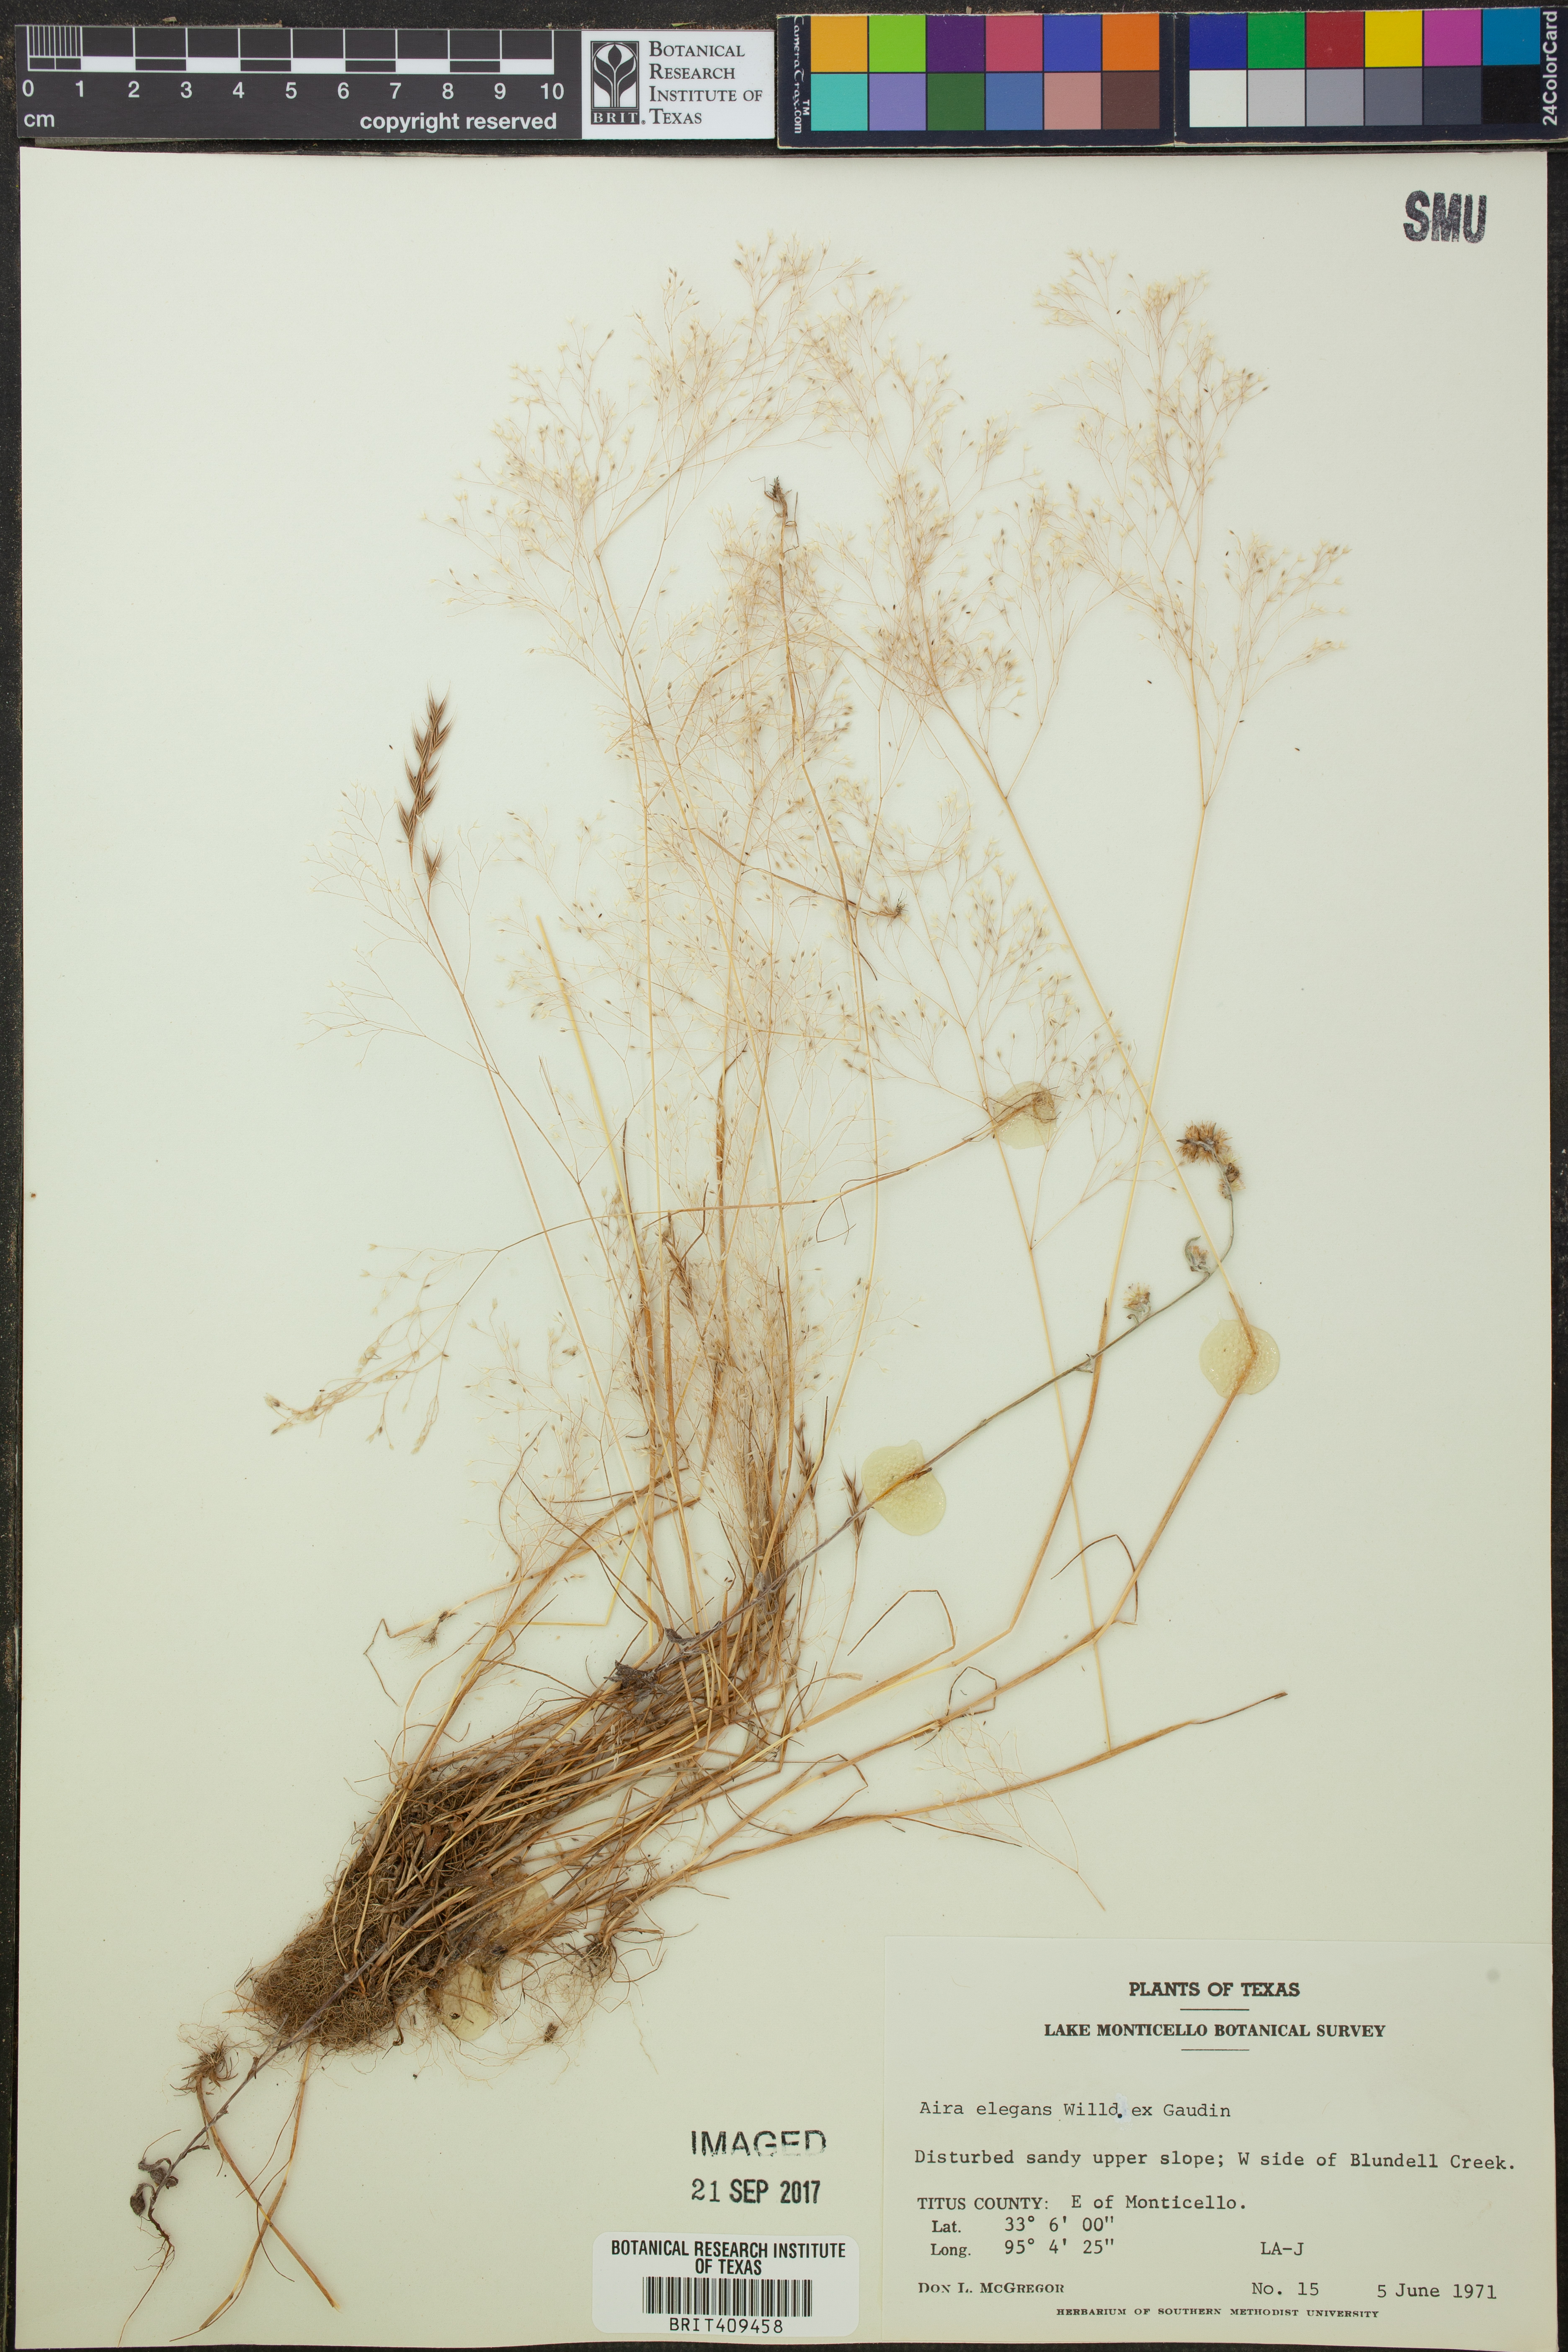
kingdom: Plantae
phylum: Tracheophyta
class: Liliopsida
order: Poales
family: Poaceae
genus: Aira
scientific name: Aira elegans
